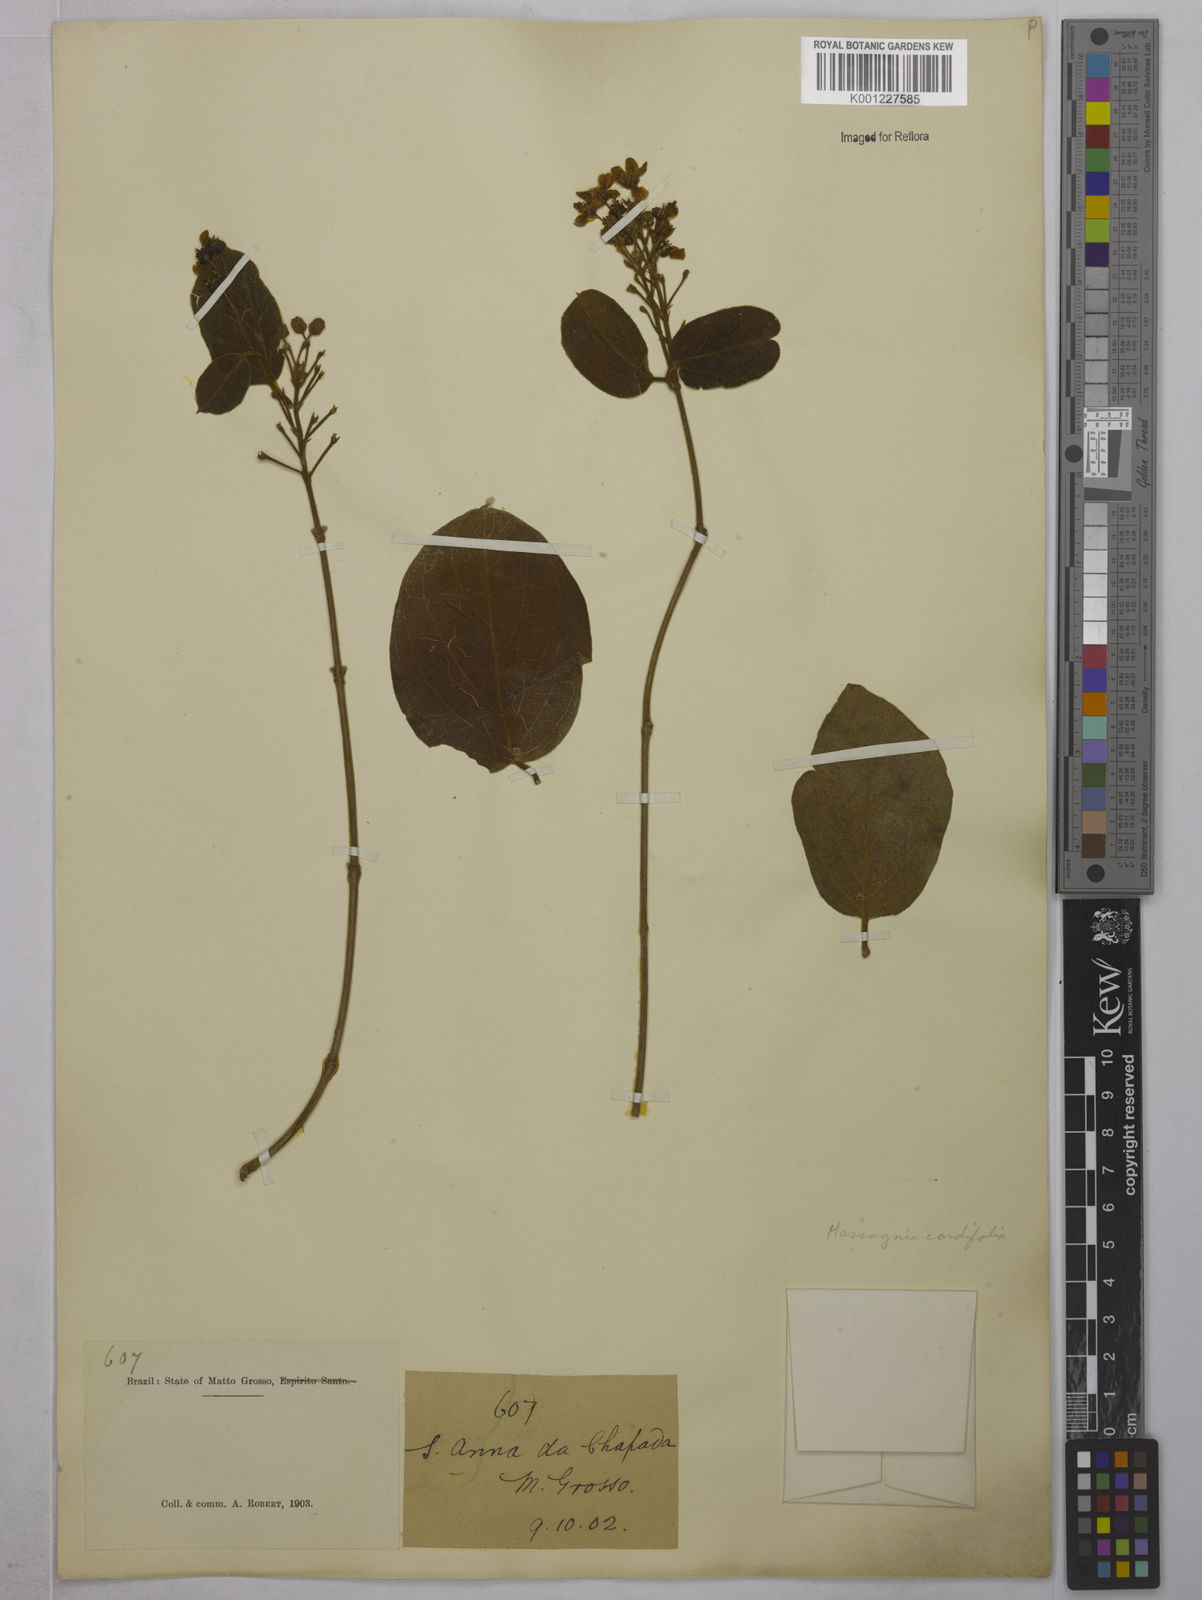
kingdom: Plantae
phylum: Tracheophyta
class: Magnoliopsida
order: Malpighiales
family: Malpighiaceae
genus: Mascagnia
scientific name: Mascagnia cordifolia
